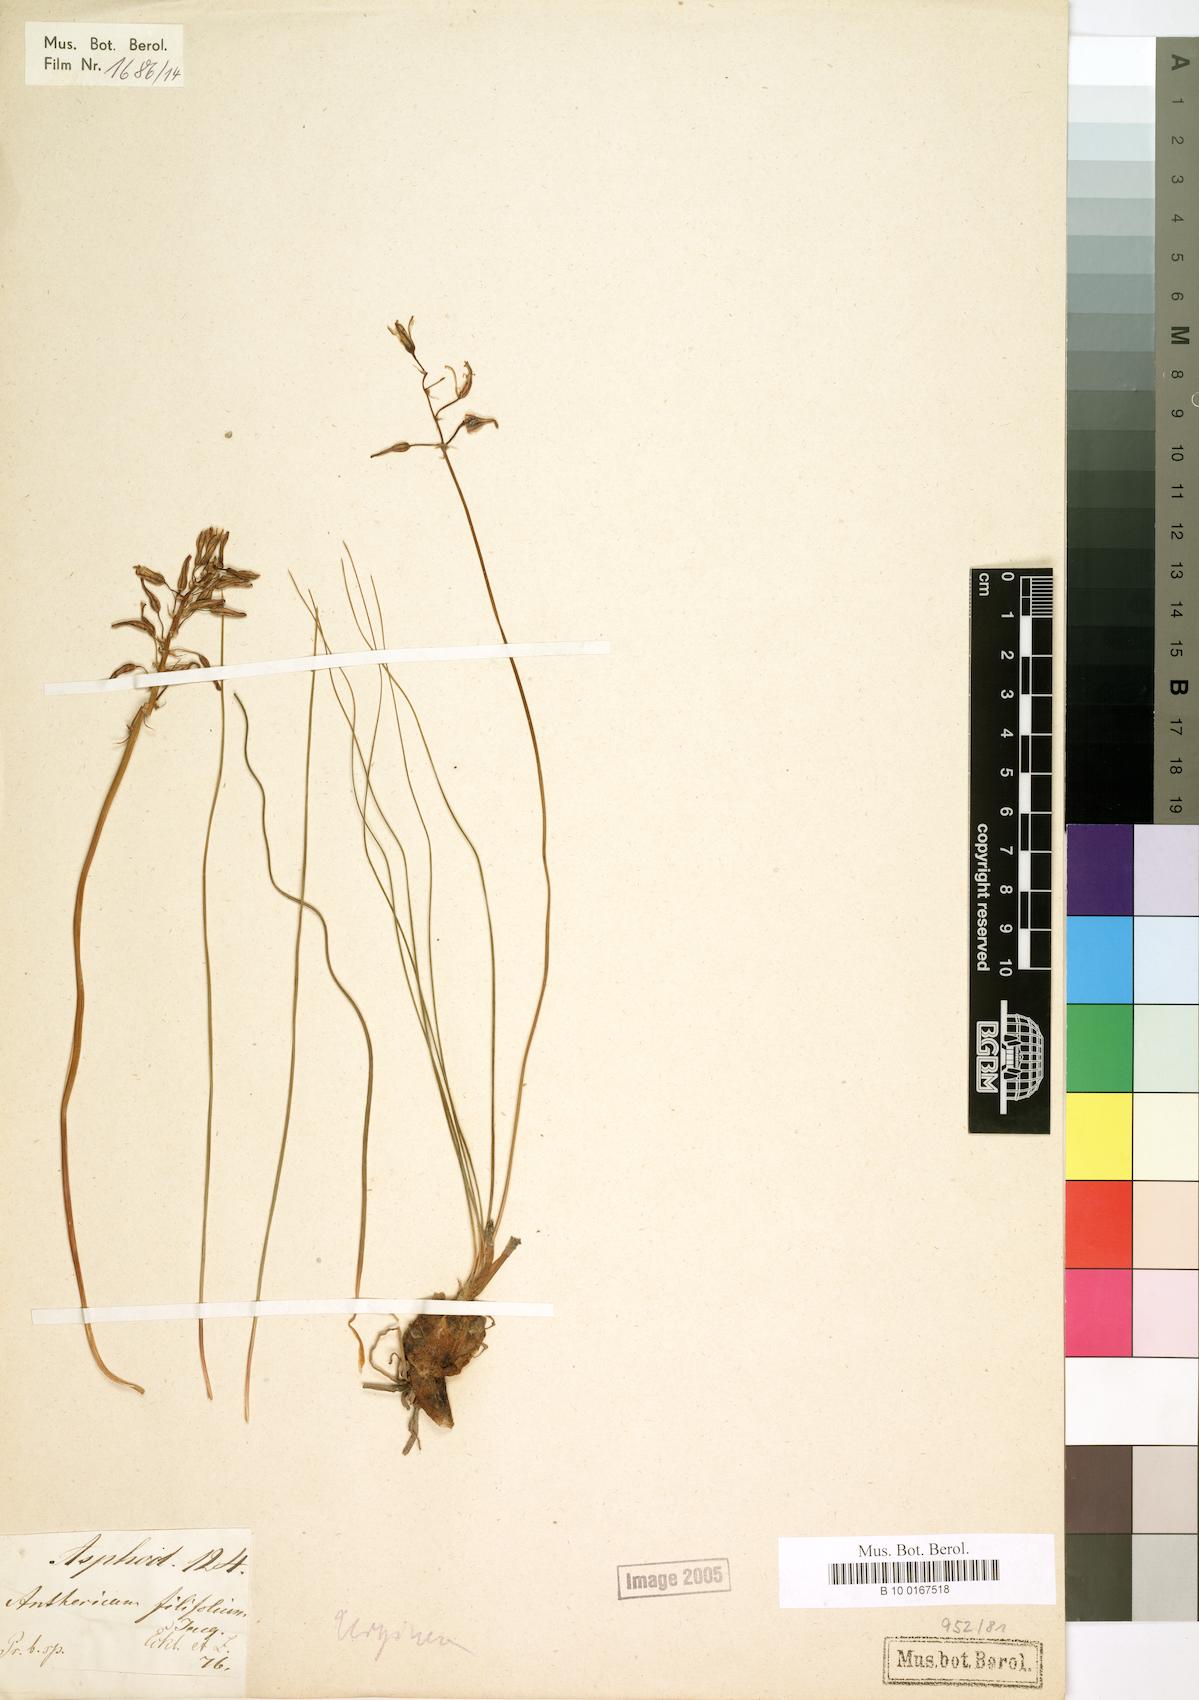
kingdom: Plantae
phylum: Tracheophyta
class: Liliopsida
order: Asparagales
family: Asparagaceae
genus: Drimia
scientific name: Drimia filifolia
